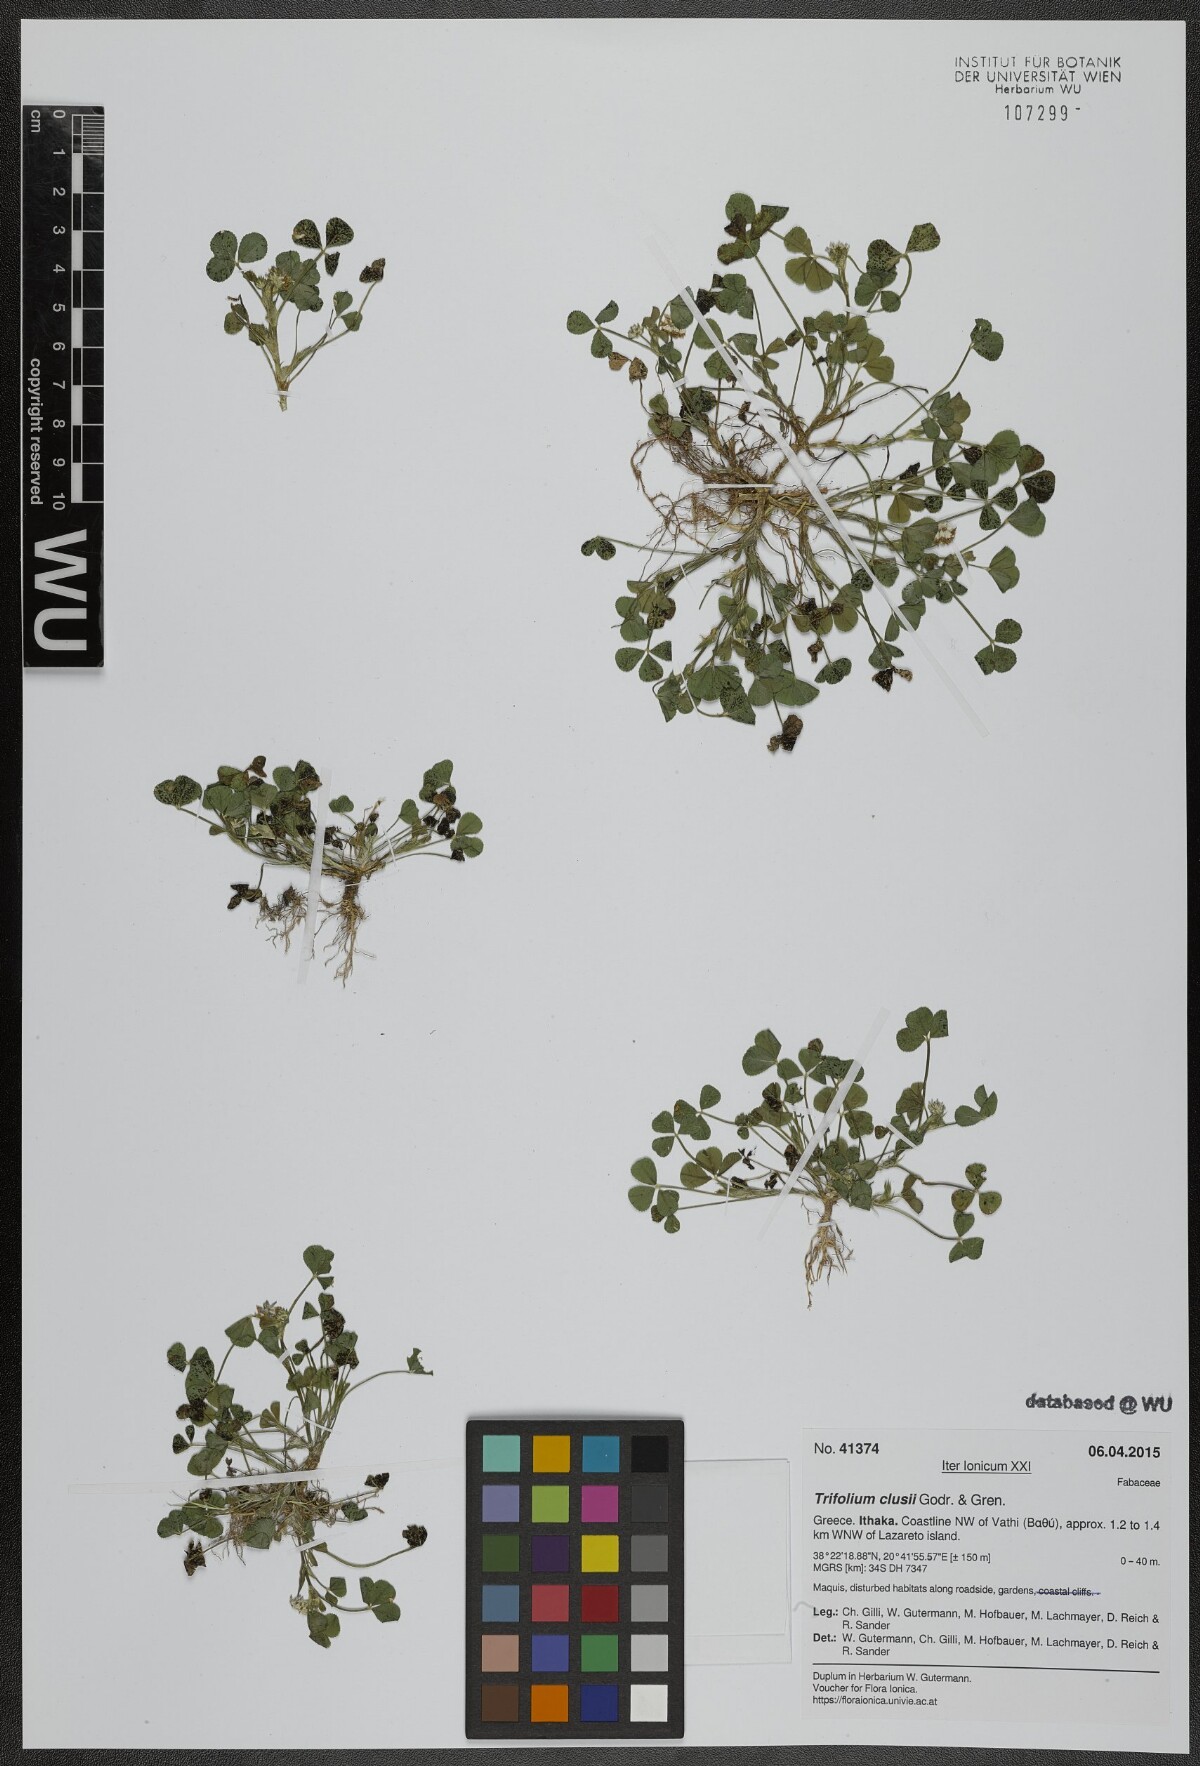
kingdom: Plantae
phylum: Tracheophyta
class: Magnoliopsida
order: Fabales
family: Fabaceae
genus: Trifolium
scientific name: Trifolium clusii
